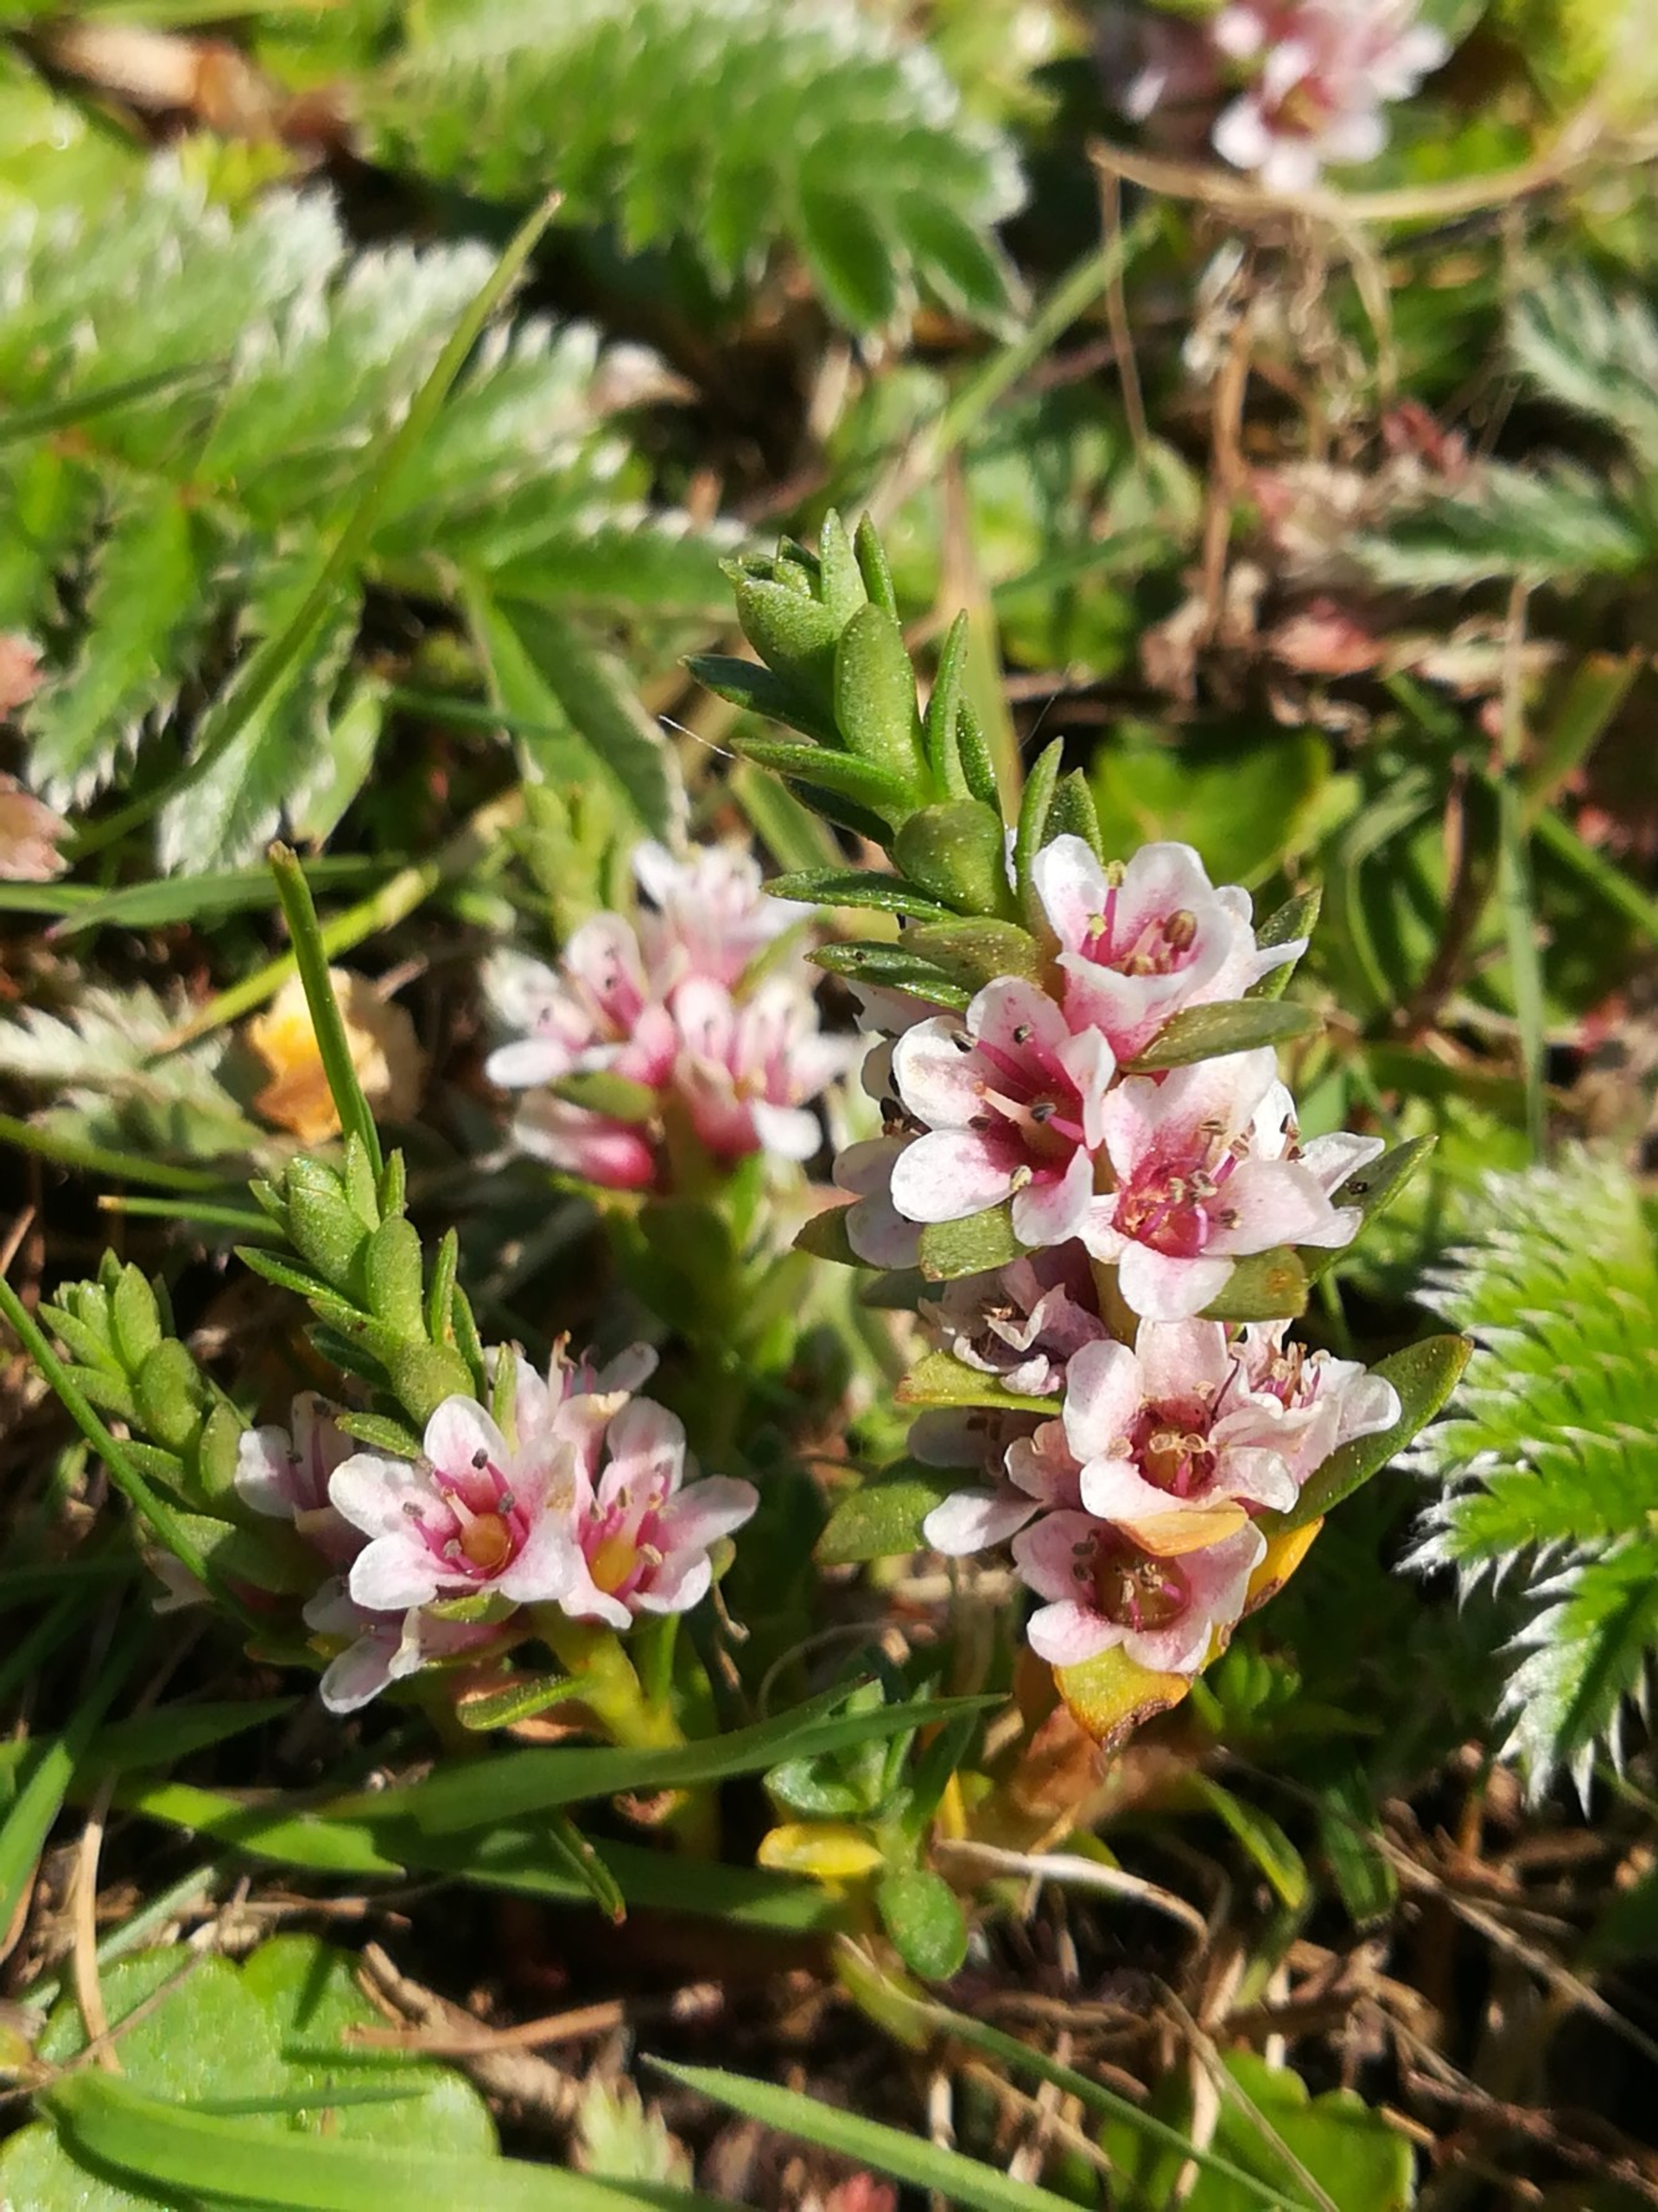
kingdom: Plantae
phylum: Tracheophyta
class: Magnoliopsida
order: Ericales
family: Primulaceae
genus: Lysimachia
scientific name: Lysimachia maritima
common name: Sandkryb
